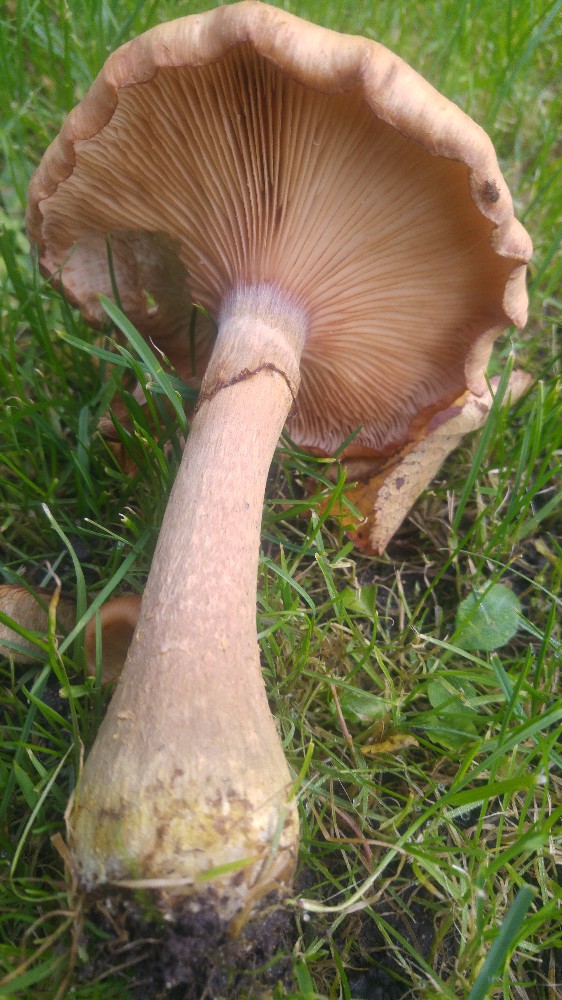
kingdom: Fungi
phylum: Basidiomycota
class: Agaricomycetes
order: Agaricales
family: Physalacriaceae
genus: Armillaria
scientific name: Armillaria lutea
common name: køllestokket honningsvamp
